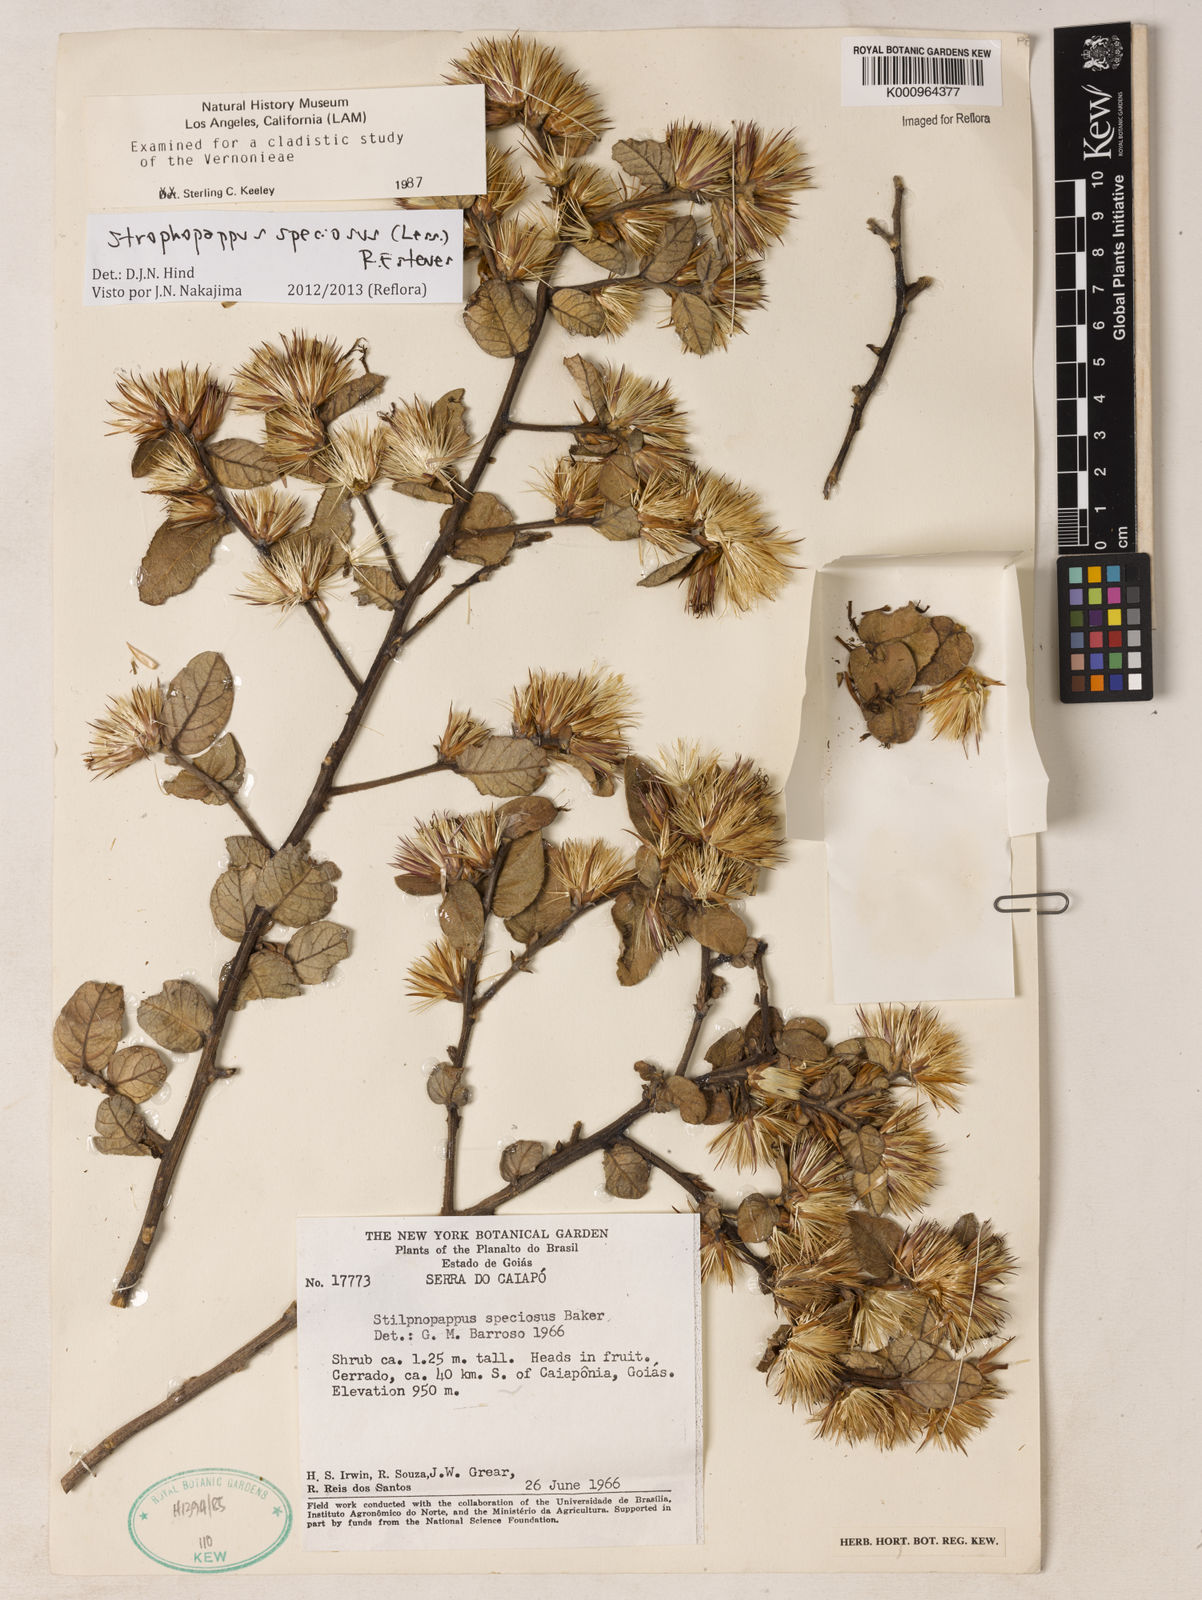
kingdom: Plantae
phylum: Tracheophyta
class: Magnoliopsida
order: Asterales
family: Asteraceae
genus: Stilpnopappus
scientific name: Stilpnopappus speciosus
